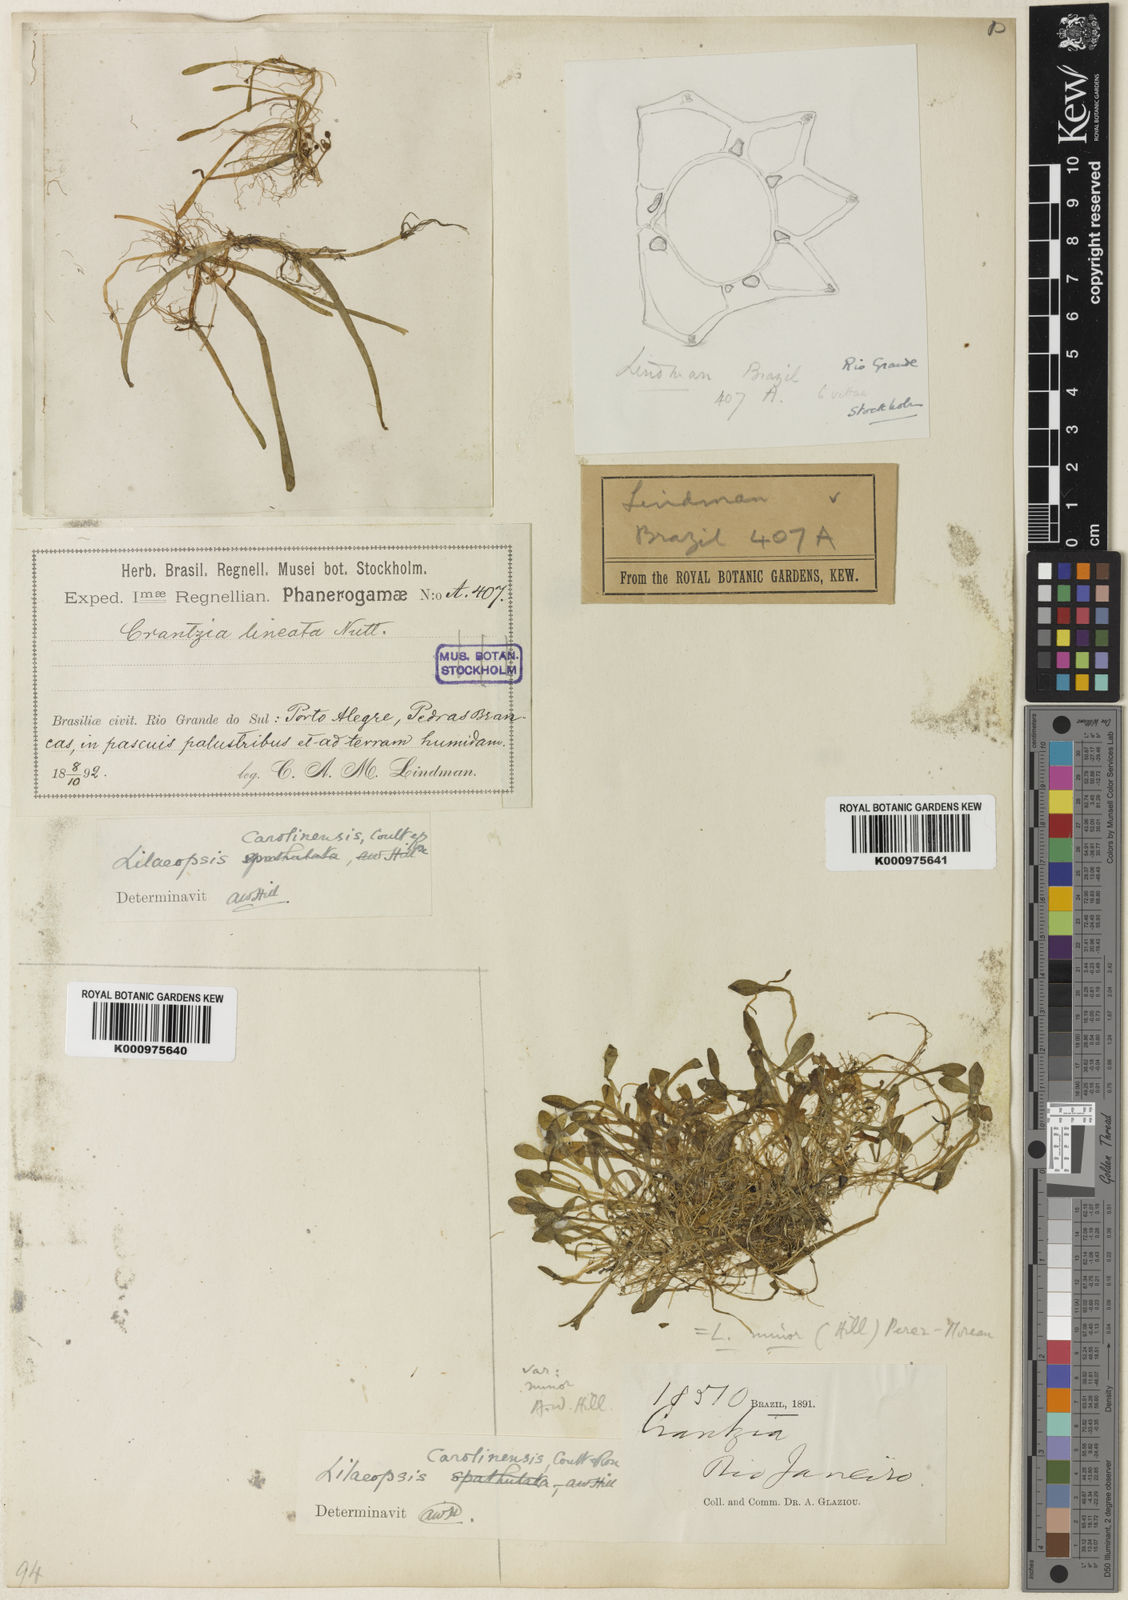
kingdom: Plantae
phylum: Tracheophyta
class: Magnoliopsida
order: Apiales
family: Apiaceae
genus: Lilaeopsis
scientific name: Lilaeopsis carolinensis
